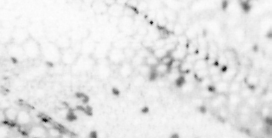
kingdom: Animalia
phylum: Chordata
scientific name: Chordata
